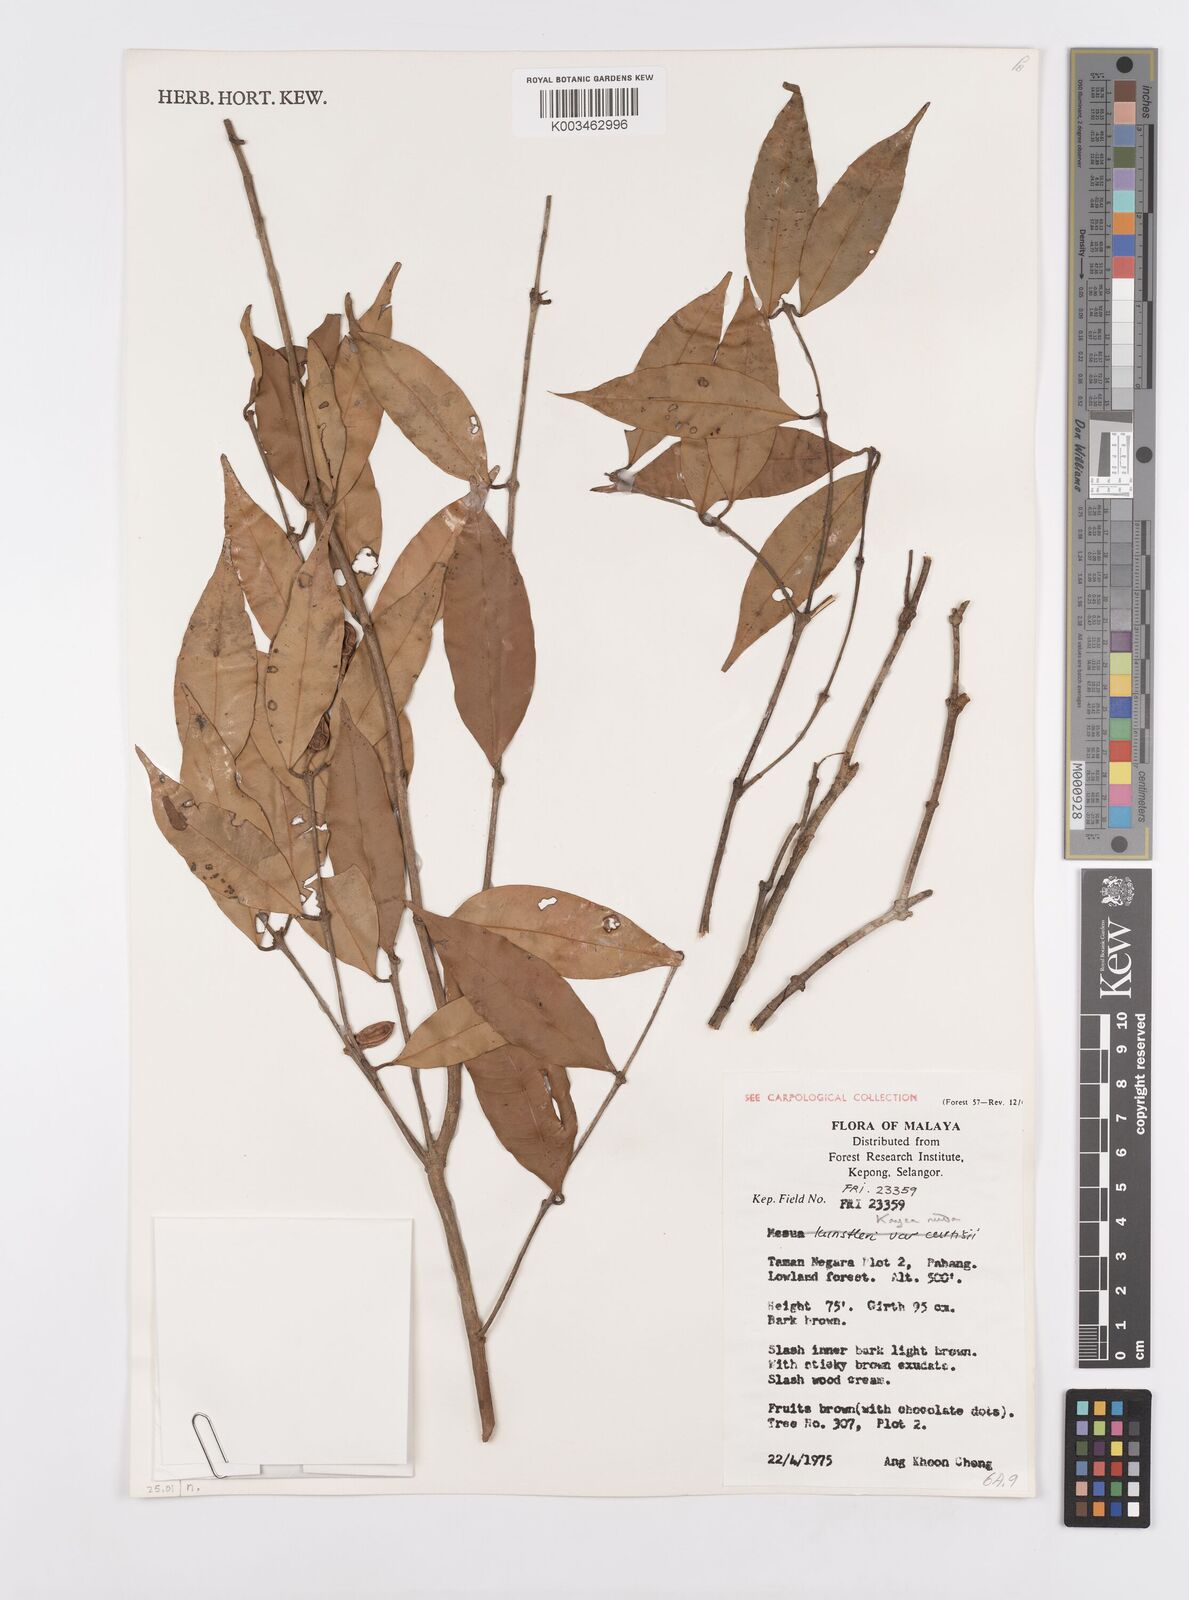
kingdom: Plantae
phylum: Tracheophyta
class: Magnoliopsida
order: Malpighiales
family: Calophyllaceae
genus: Kayea
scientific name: Kayea
